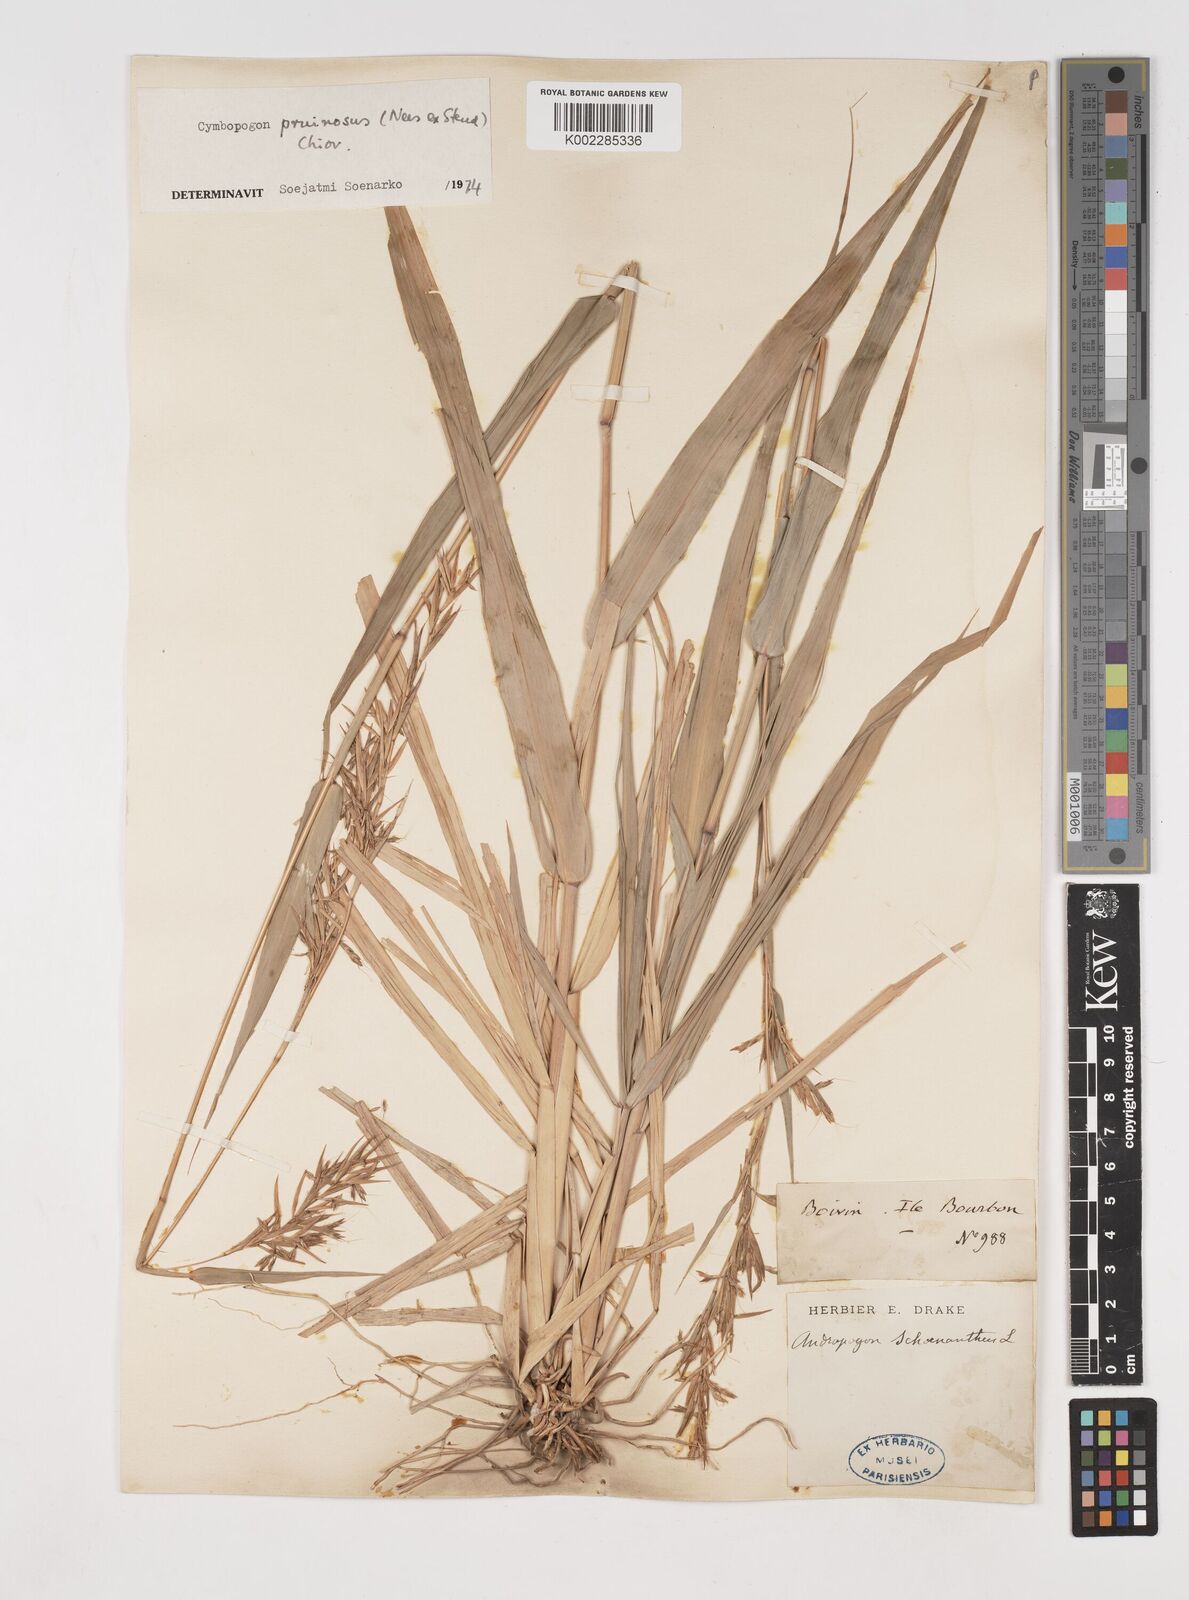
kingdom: Plantae
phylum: Tracheophyta
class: Liliopsida
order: Poales
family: Poaceae
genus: Cymbopogon
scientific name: Cymbopogon pruinosus
